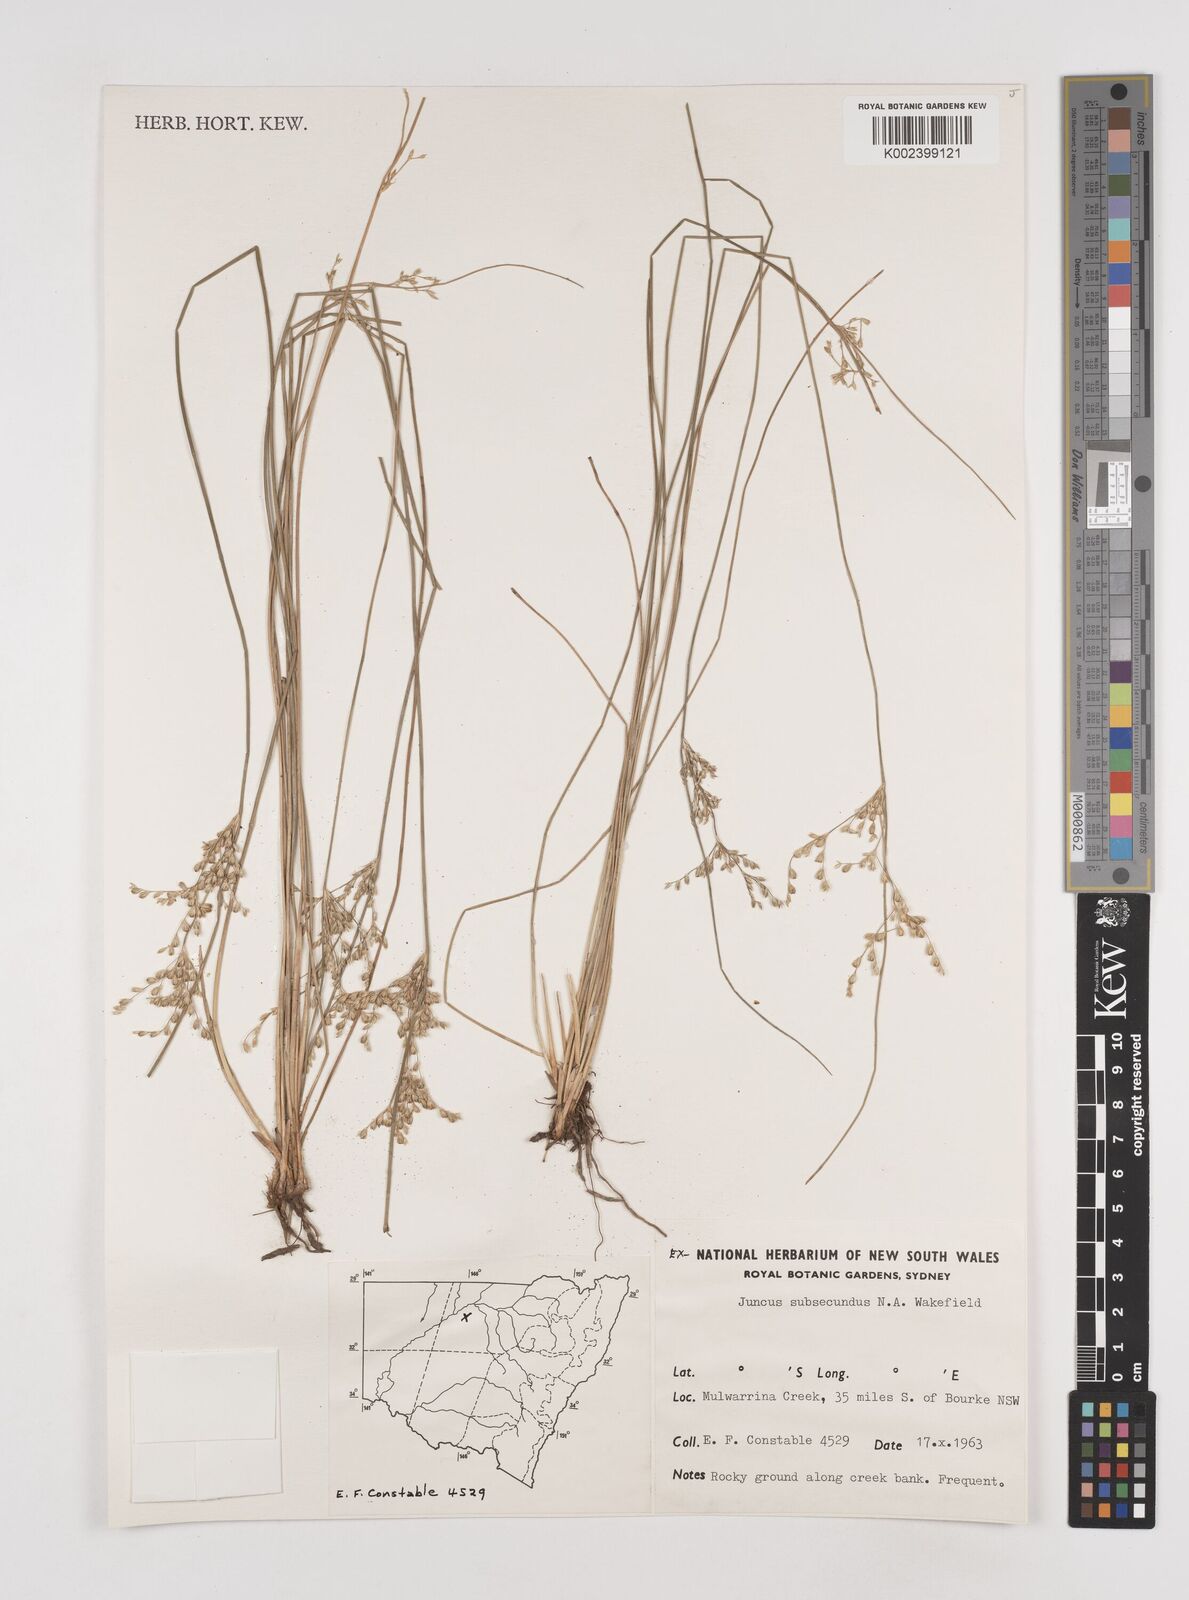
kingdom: Plantae
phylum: Tracheophyta
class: Liliopsida
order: Poales
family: Juncaceae
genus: Juncus
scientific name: Juncus subsecundus
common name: Fingered rush
